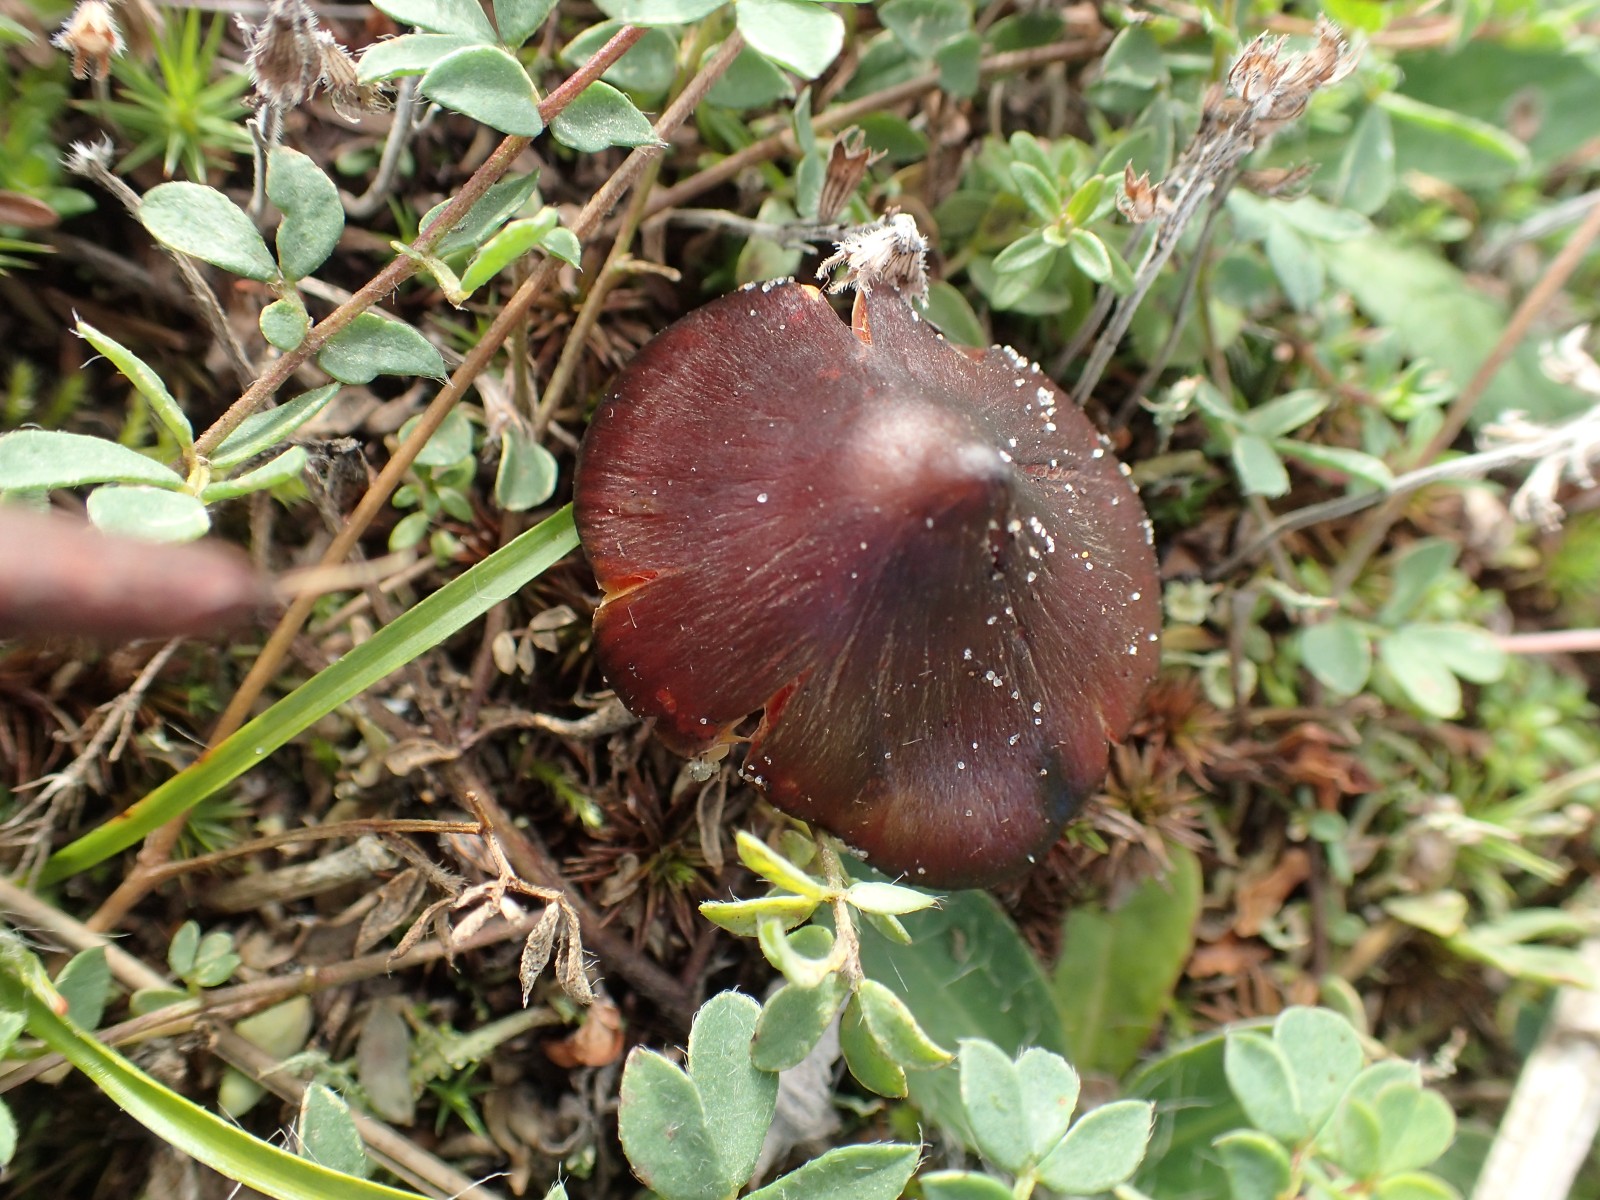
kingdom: Fungi
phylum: Basidiomycota
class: Agaricomycetes
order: Agaricales
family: Hygrophoraceae
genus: Hygrocybe
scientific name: Hygrocybe
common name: vokshat
